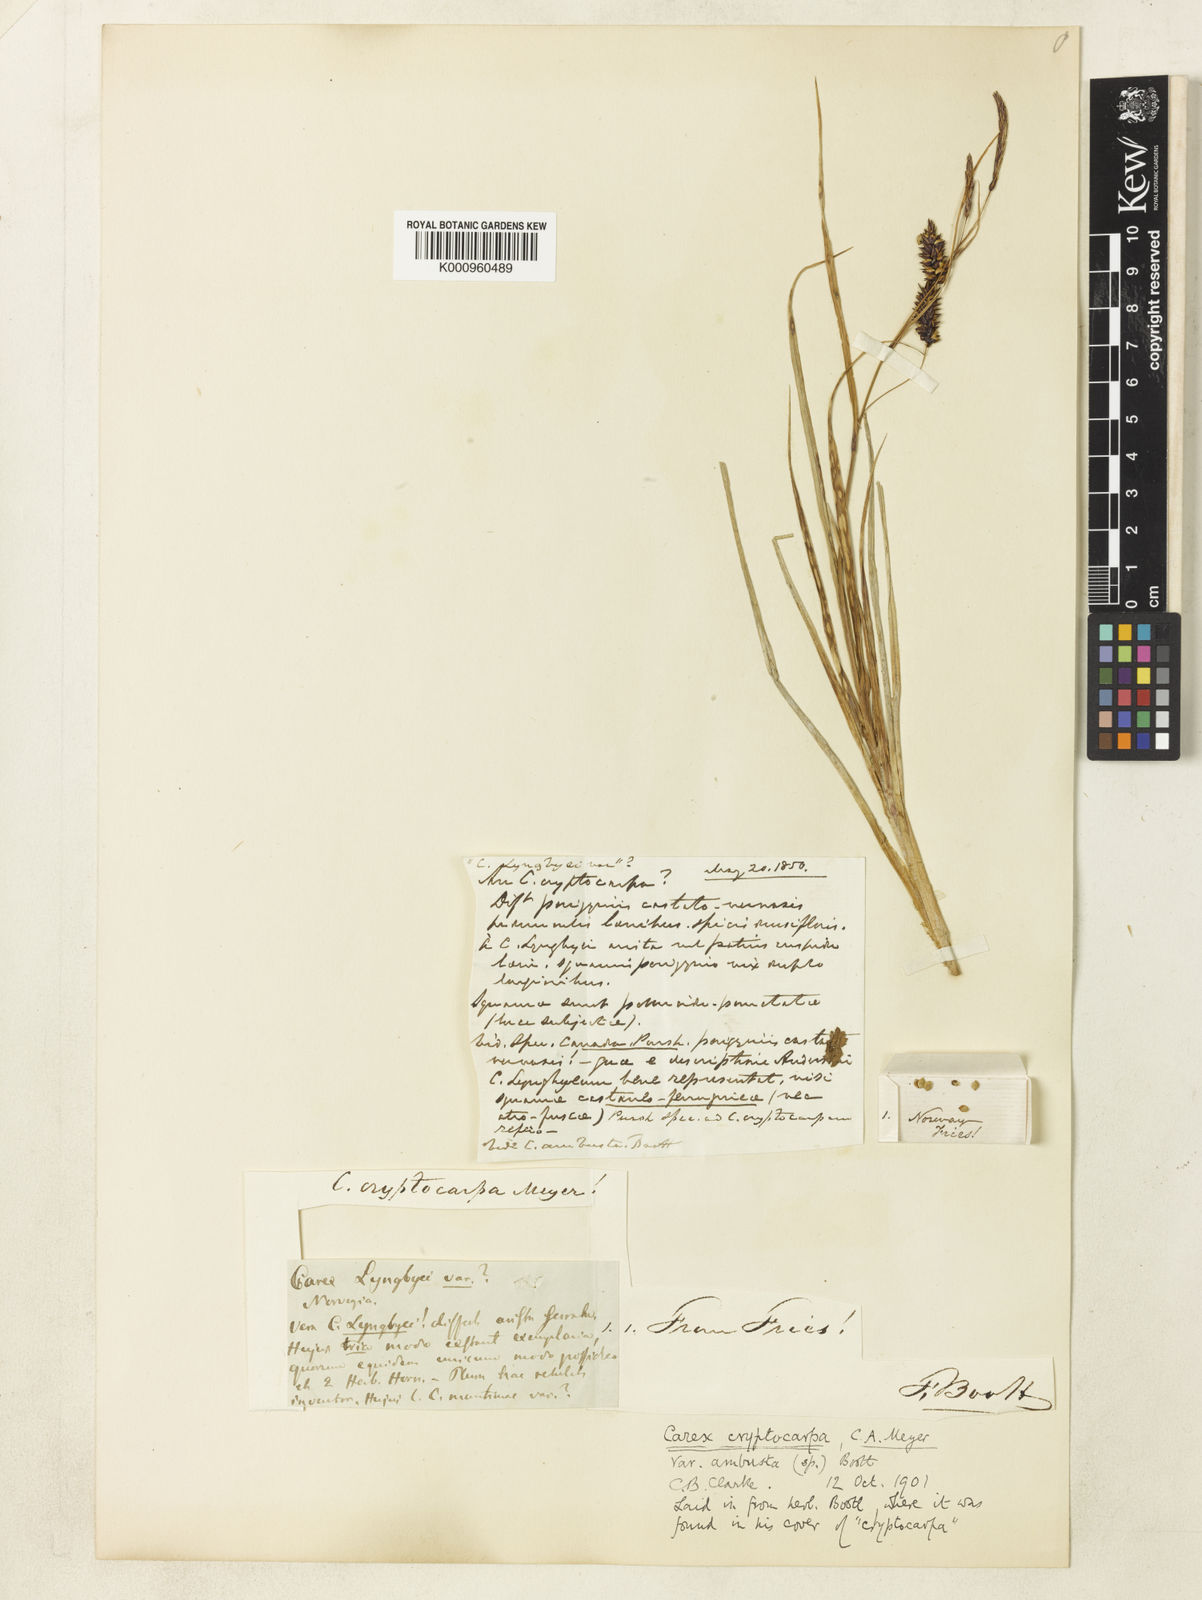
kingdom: Plantae
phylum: Tracheophyta
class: Liliopsida
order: Poales
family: Cyperaceae
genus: Carex
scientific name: Carex lyngbyei
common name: Lyngbye's sedge
